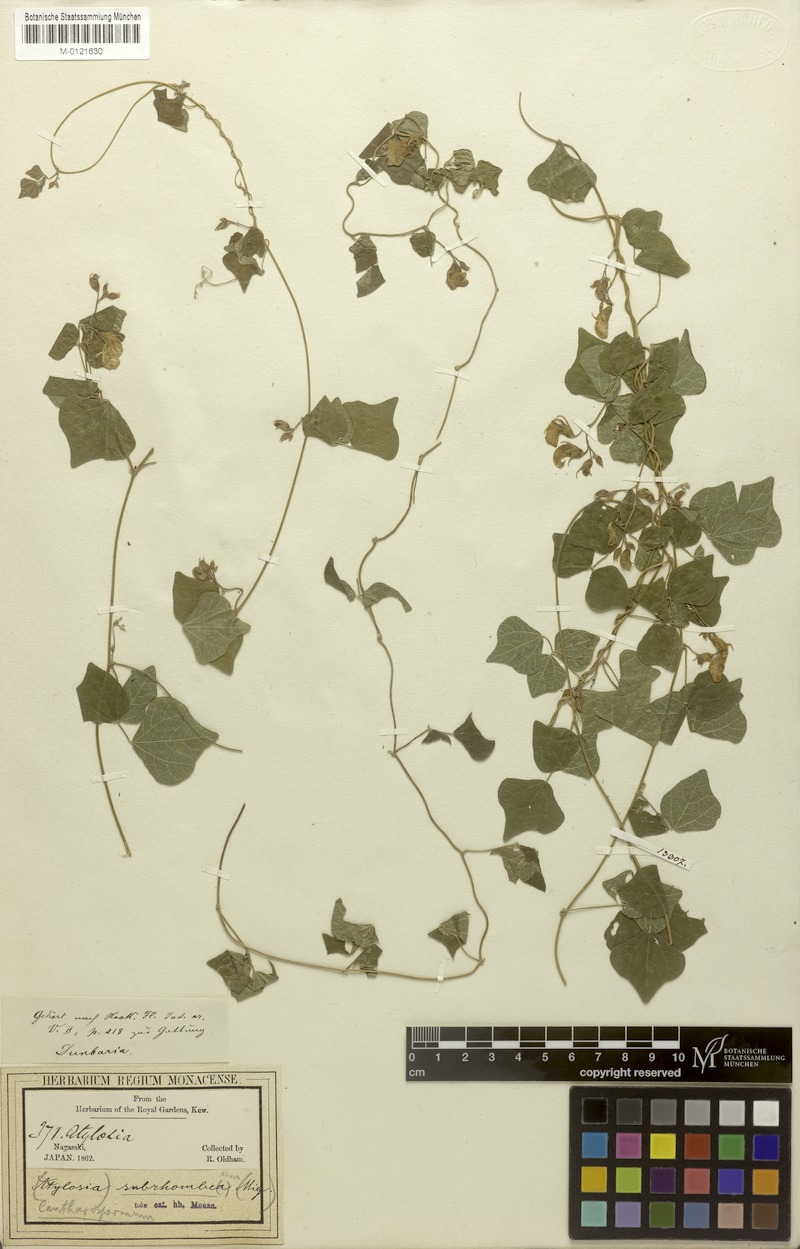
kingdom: Plantae
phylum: Tracheophyta
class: Magnoliopsida
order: Fabales
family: Fabaceae
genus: Dunbaria
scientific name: Dunbaria villosa
